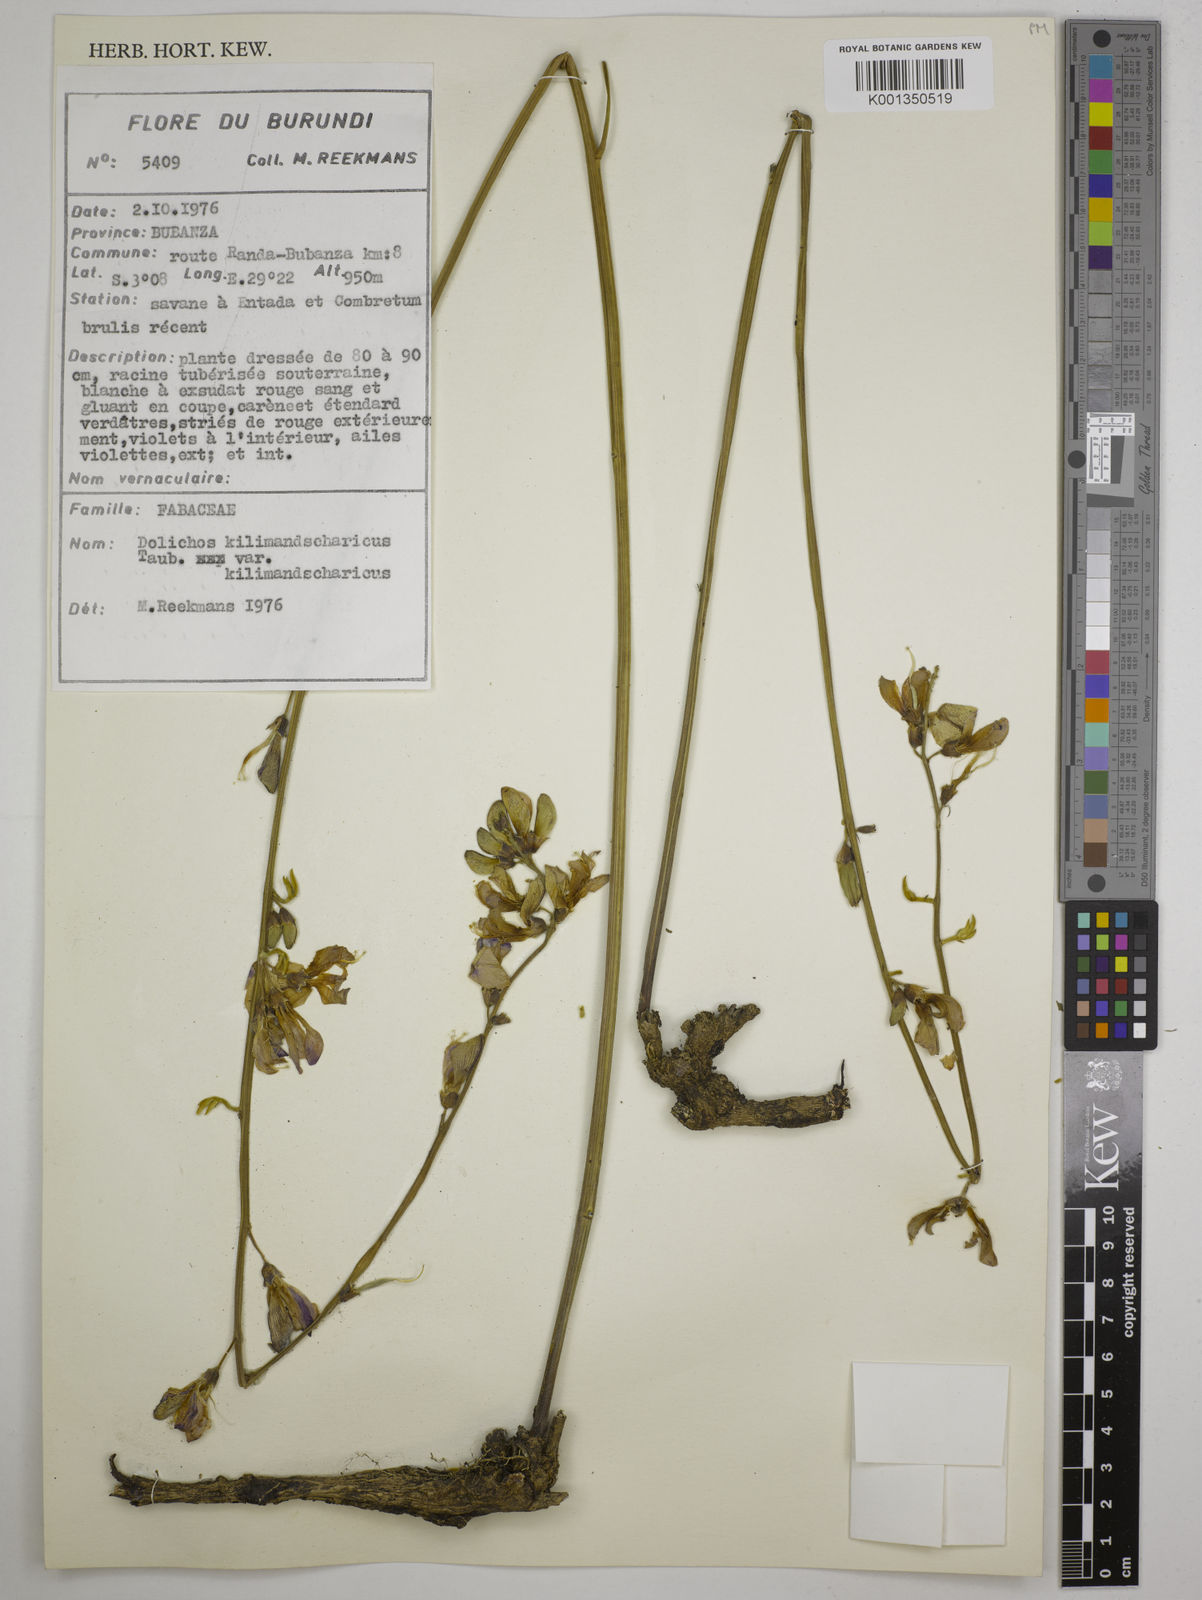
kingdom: Plantae
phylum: Tracheophyta
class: Magnoliopsida
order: Fabales
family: Fabaceae
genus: Dolichos
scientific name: Dolichos
